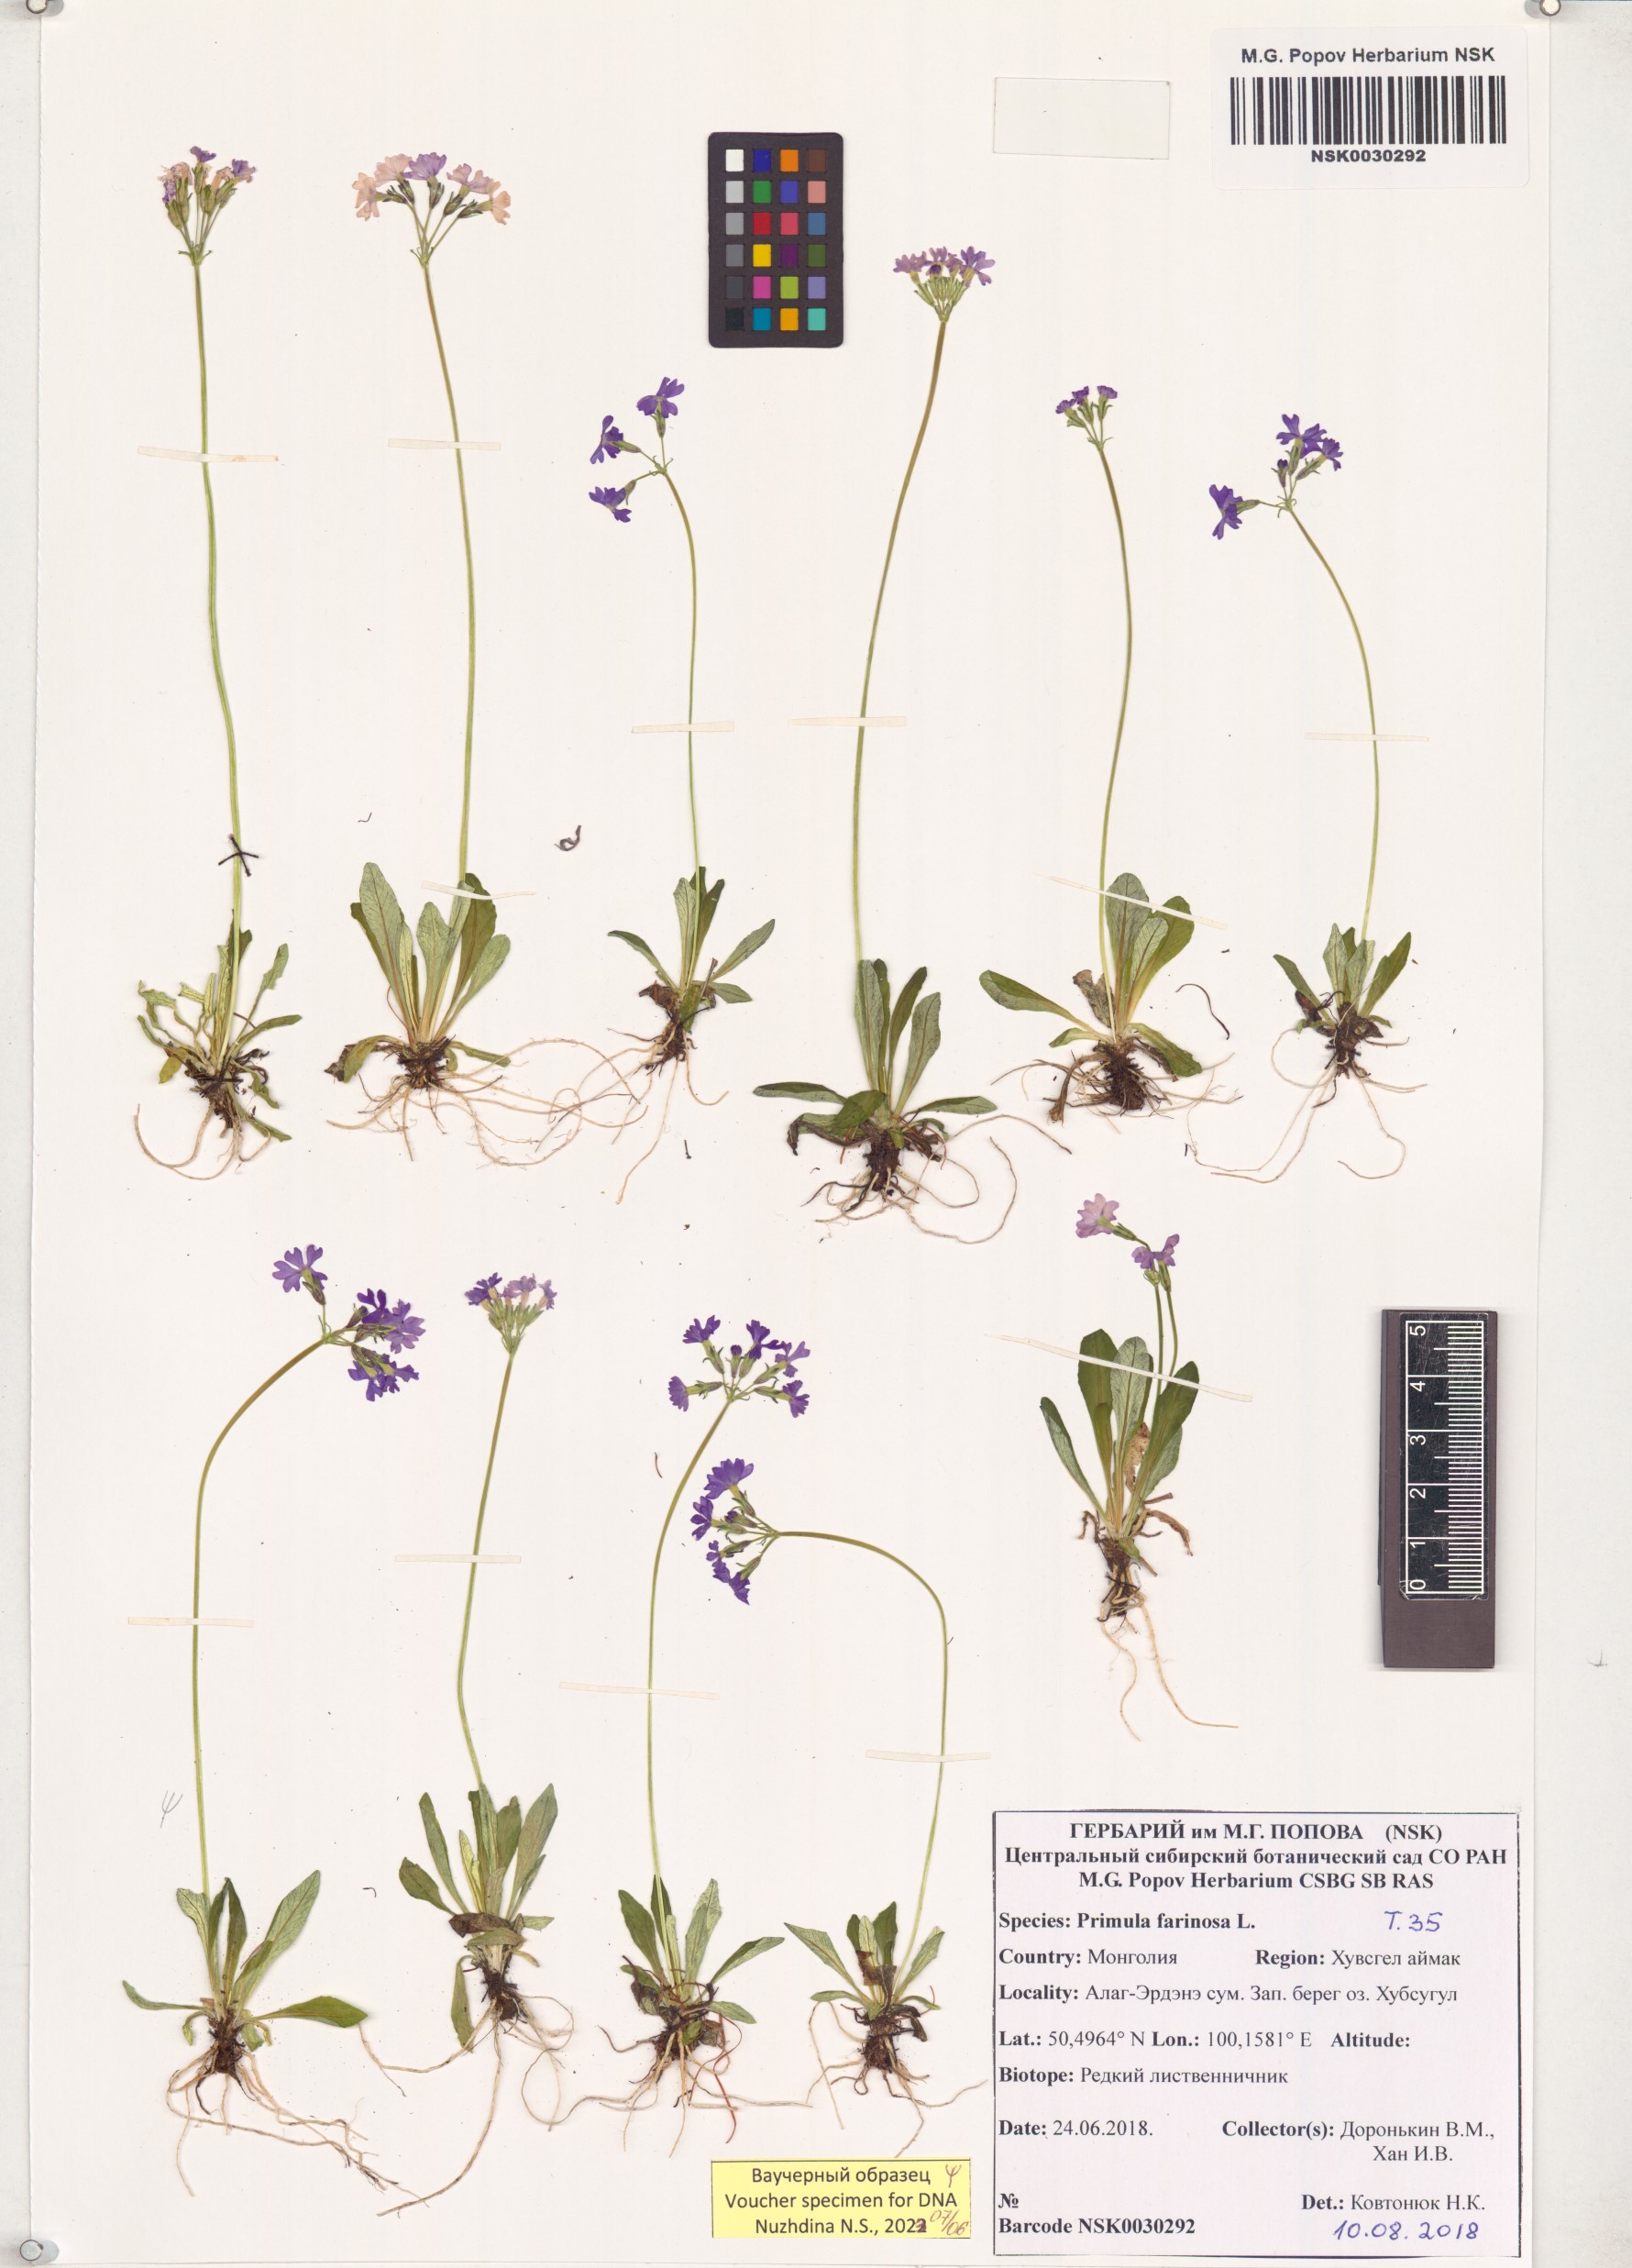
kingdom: Plantae
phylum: Tracheophyta
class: Magnoliopsida
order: Ericales
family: Primulaceae
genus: Primula
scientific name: Primula farinosa
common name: Bird's-eye primrose
